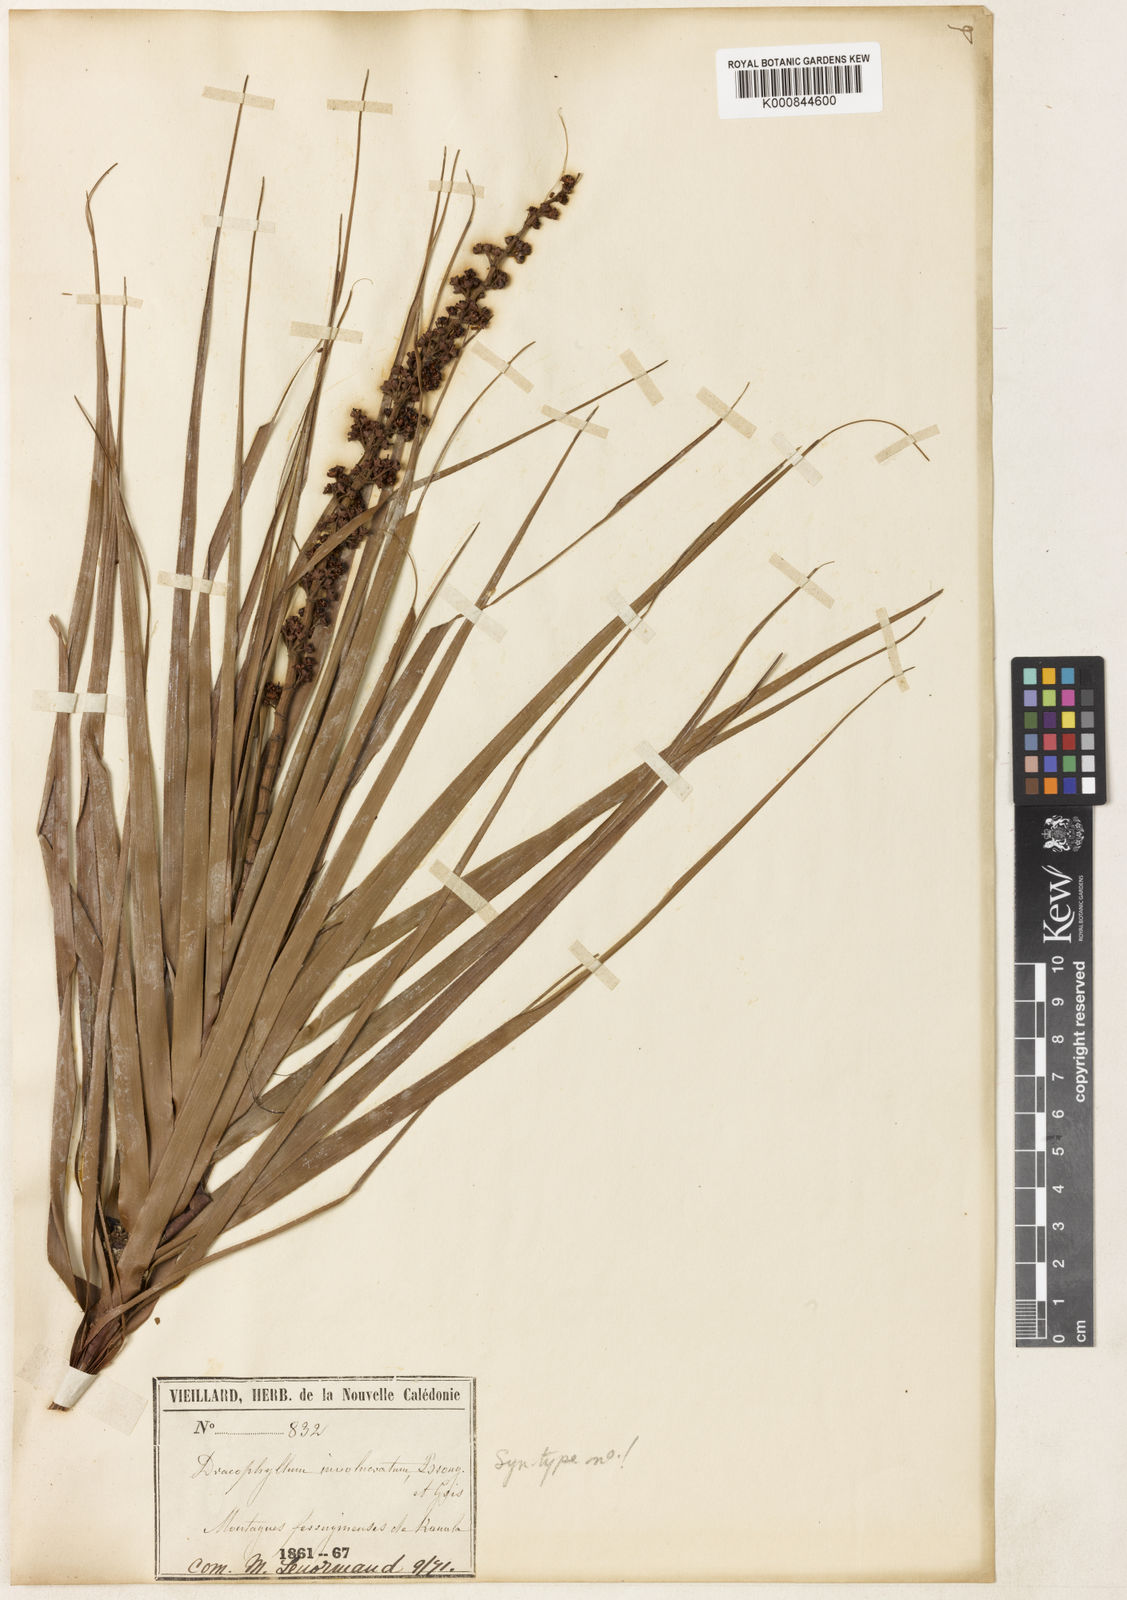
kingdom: Plantae
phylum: Tracheophyta
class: Magnoliopsida
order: Ericales
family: Ericaceae
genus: Dracophyllum
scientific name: Dracophyllum involucratum
